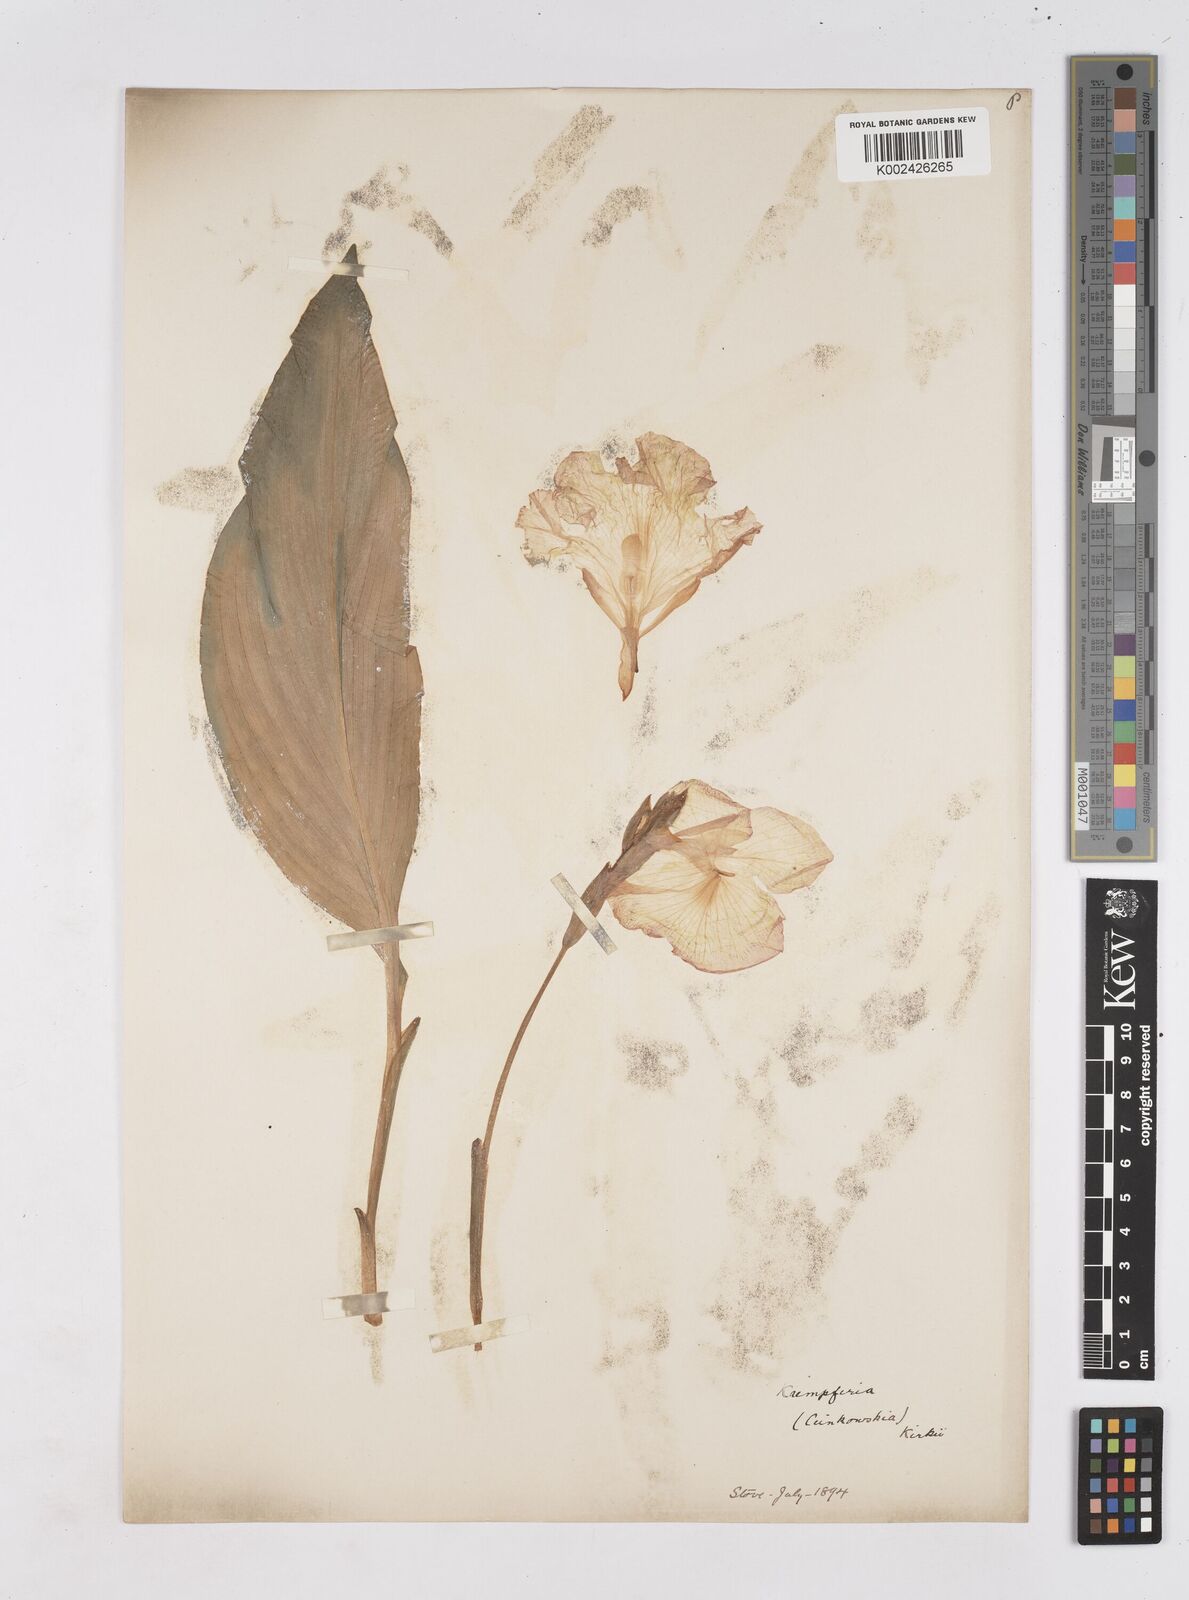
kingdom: Plantae
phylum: Tracheophyta
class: Liliopsida
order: Zingiberales
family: Zingiberaceae
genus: Siphonochilus
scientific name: Siphonochilus kirkii
